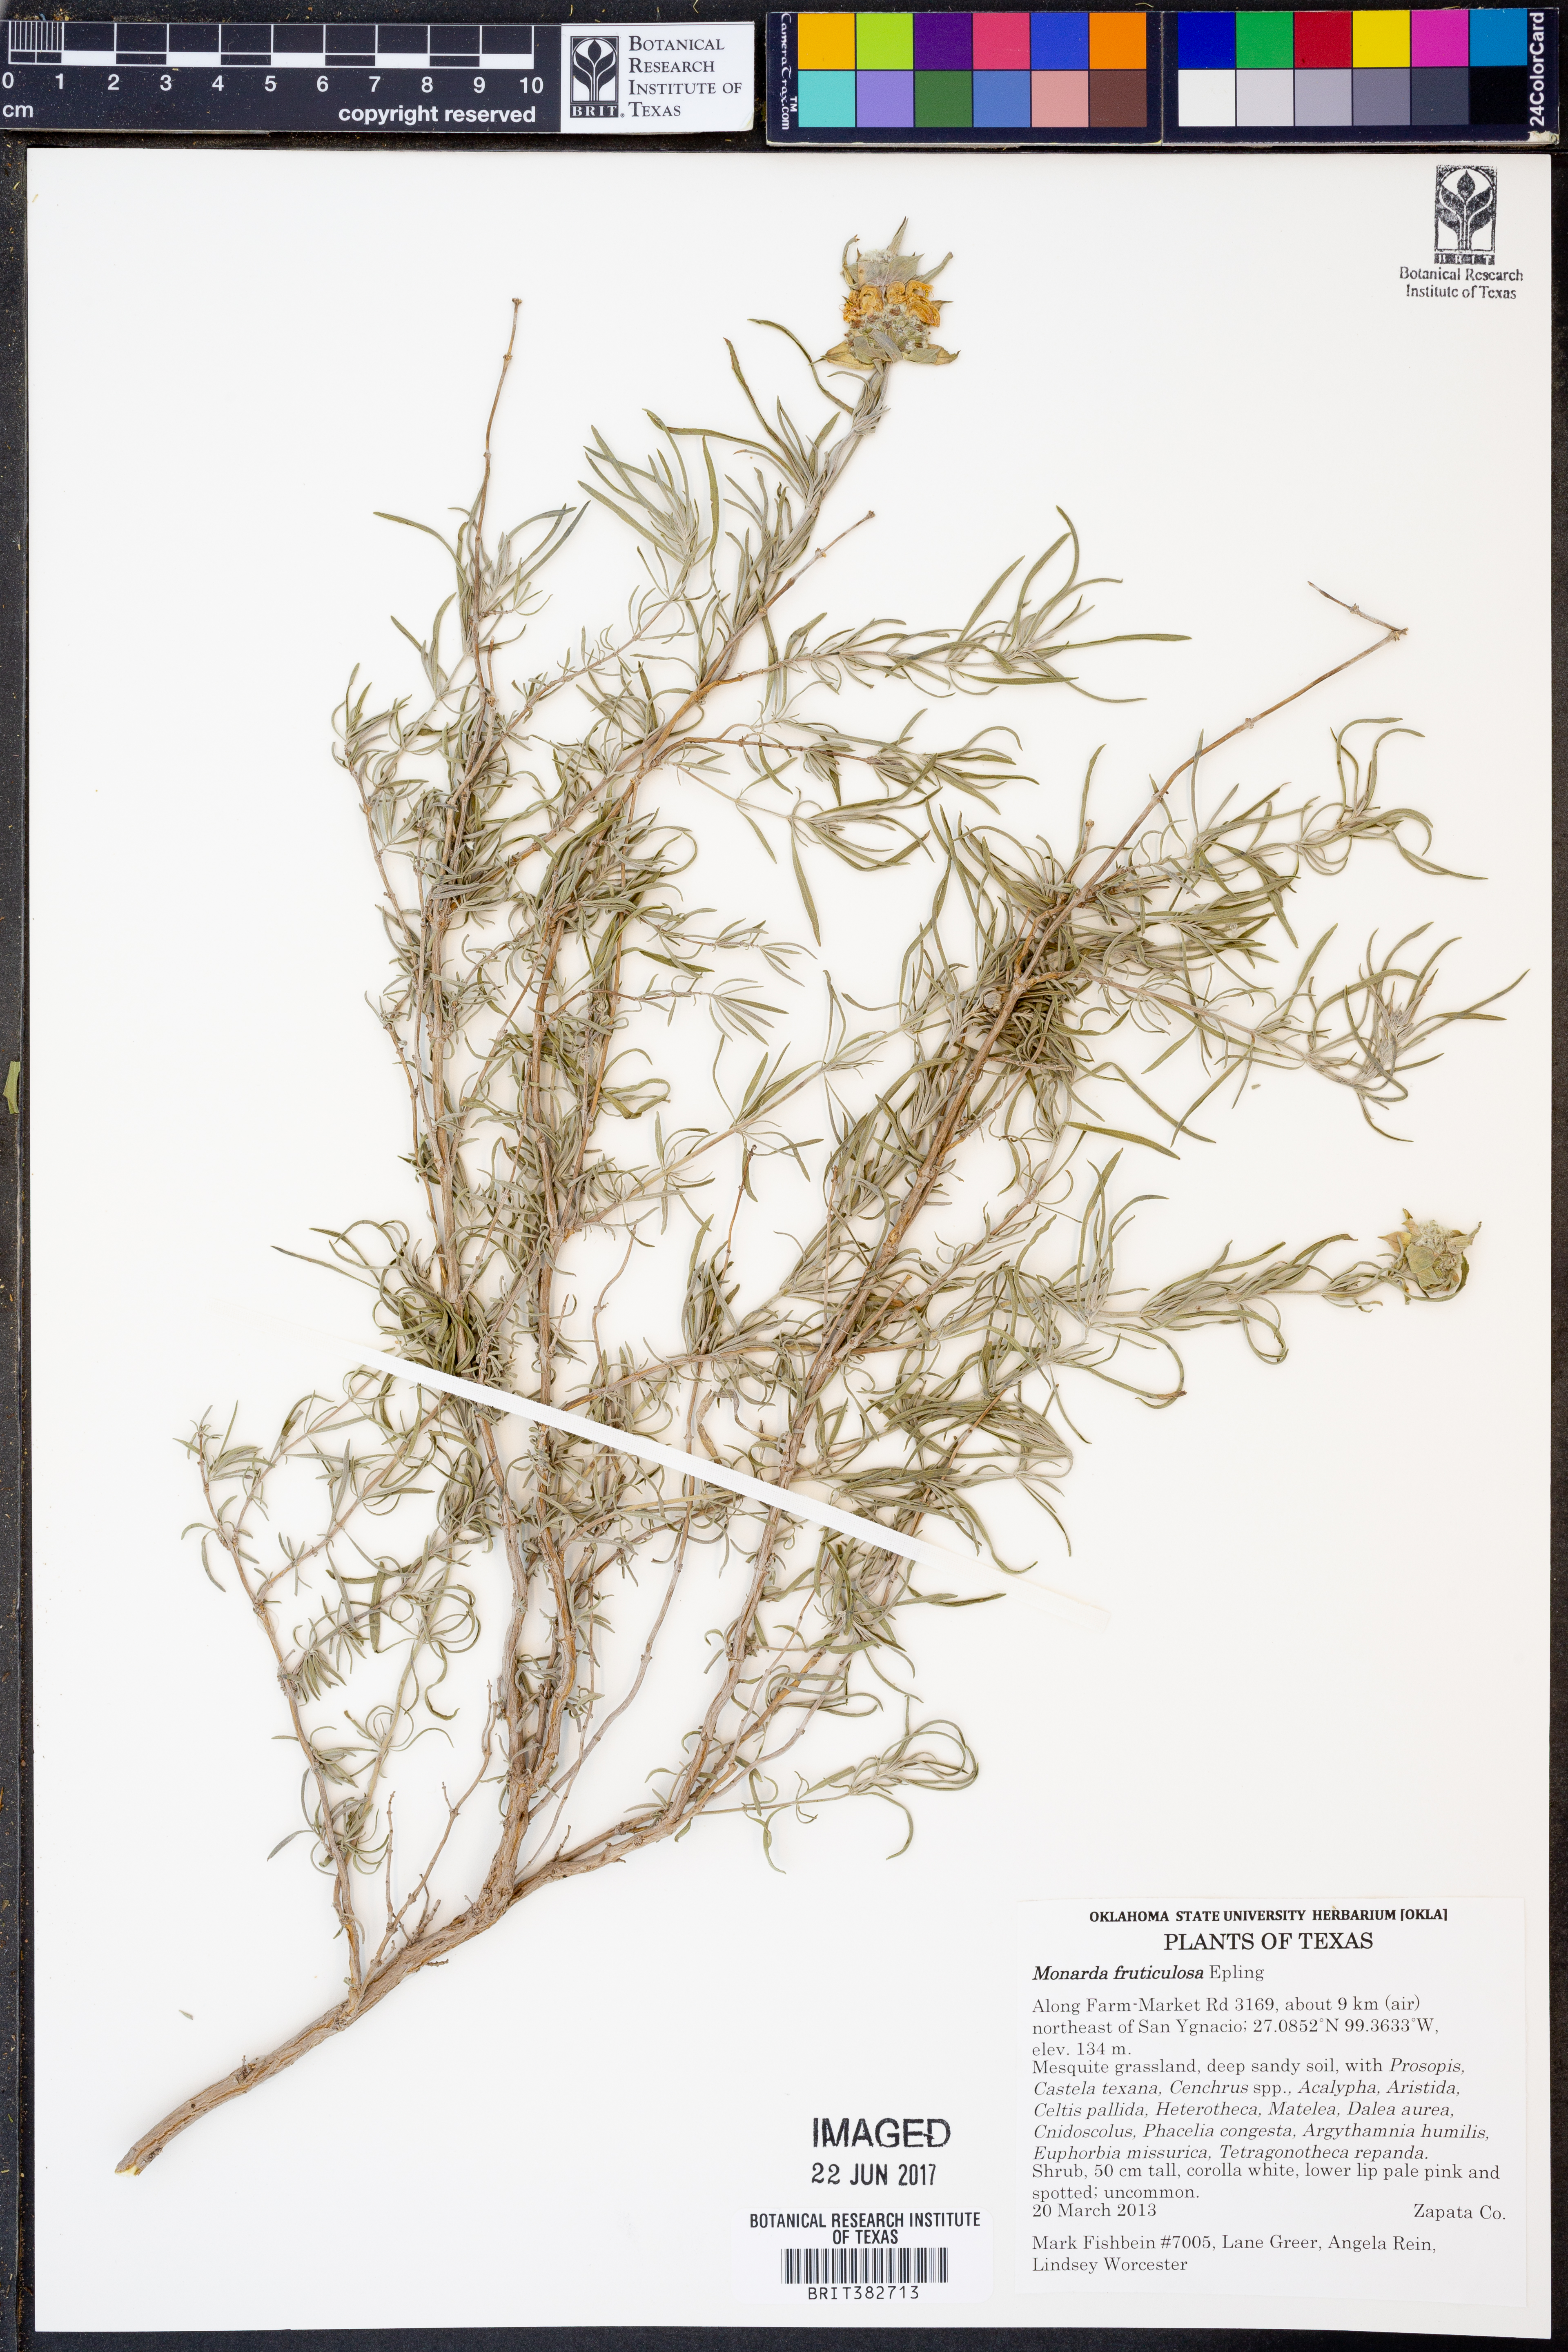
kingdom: Plantae
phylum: Tracheophyta
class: Magnoliopsida
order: Lamiales
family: Lamiaceae
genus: Monarda
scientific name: Monarda fruticulosa
